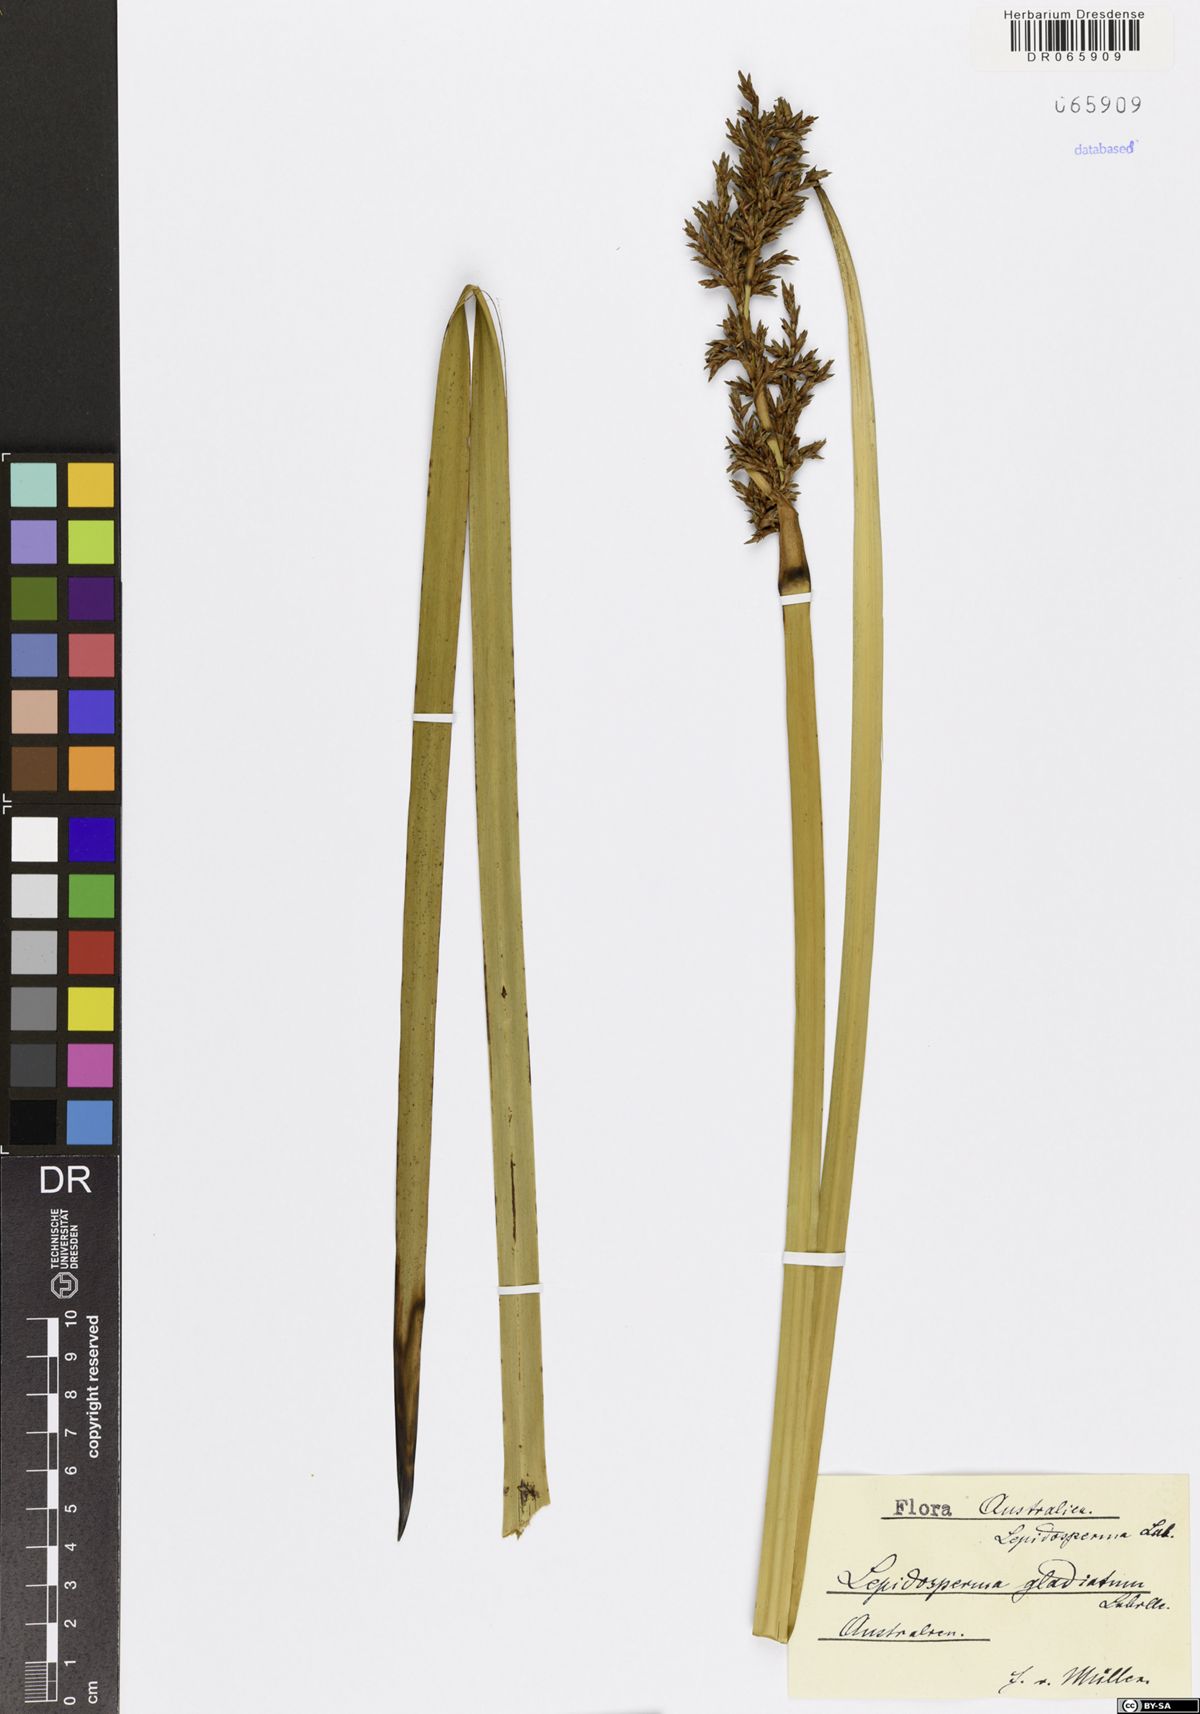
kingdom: Plantae
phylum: Tracheophyta
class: Liliopsida
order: Poales
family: Cyperaceae
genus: Lepidosperma
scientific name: Lepidosperma gladiatum
